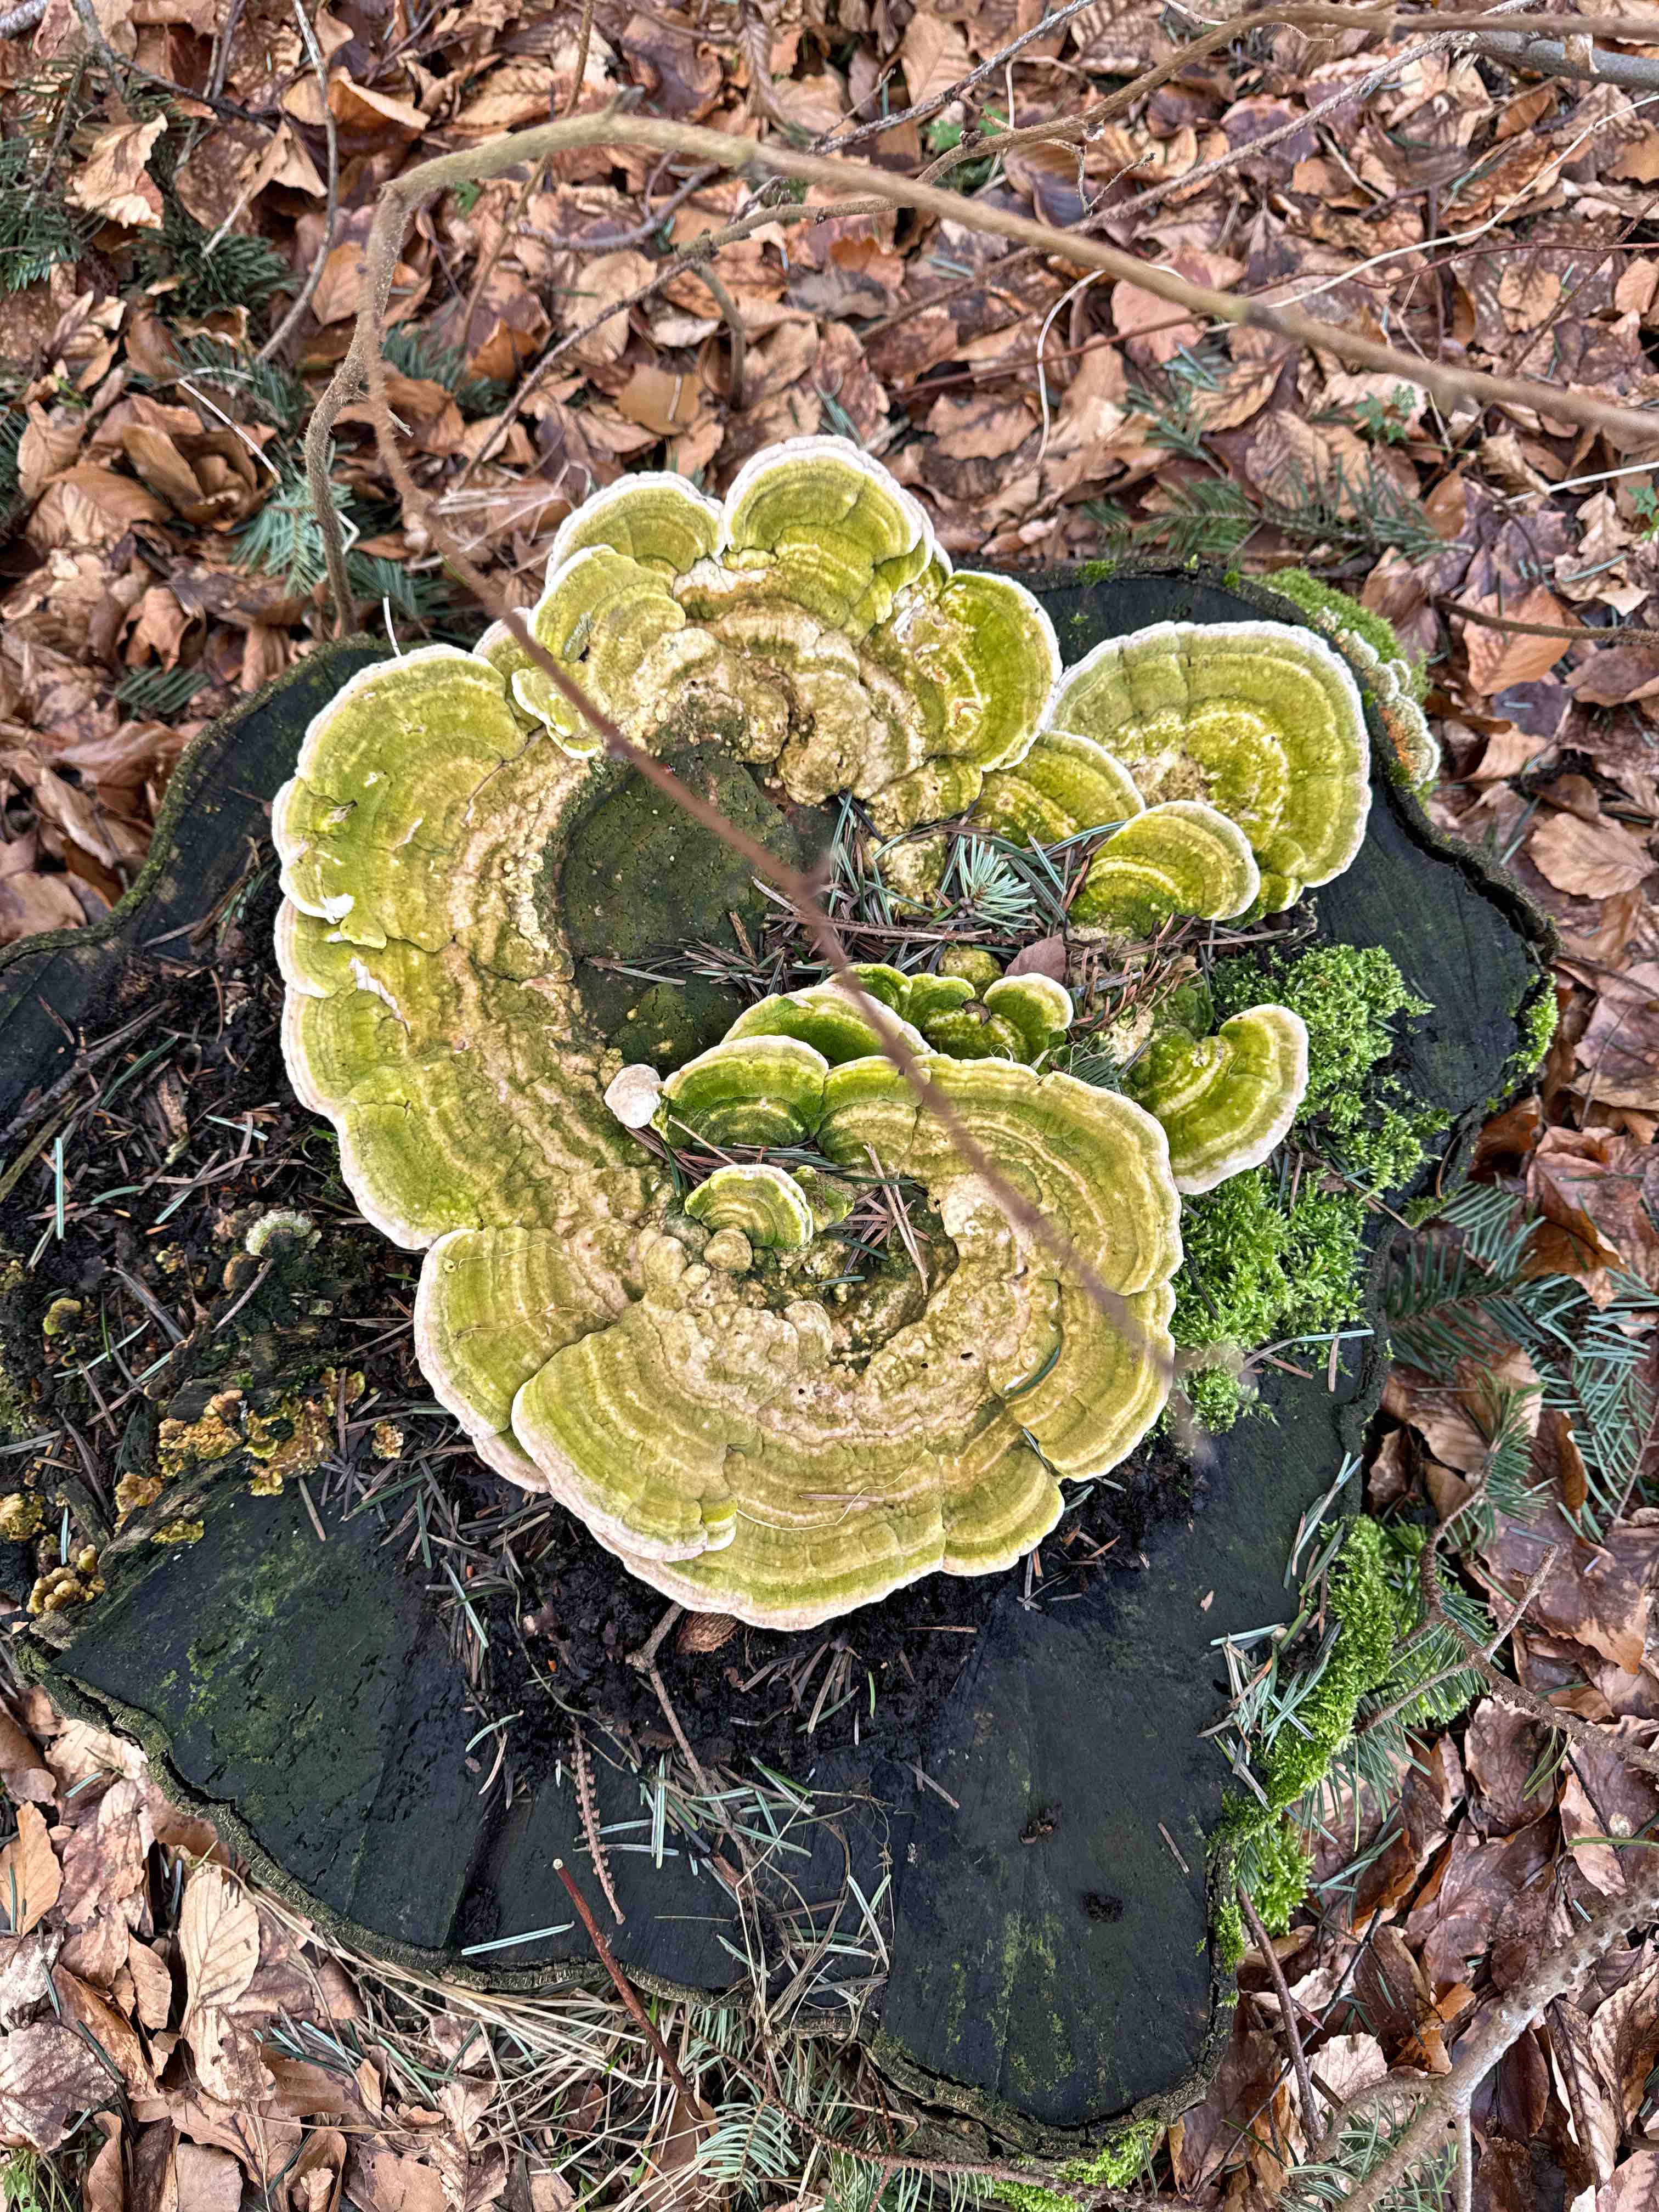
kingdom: Fungi
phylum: Basidiomycota
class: Agaricomycetes
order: Polyporales
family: Polyporaceae
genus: Trametes
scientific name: Trametes gibbosa
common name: puklet læderporesvamp
